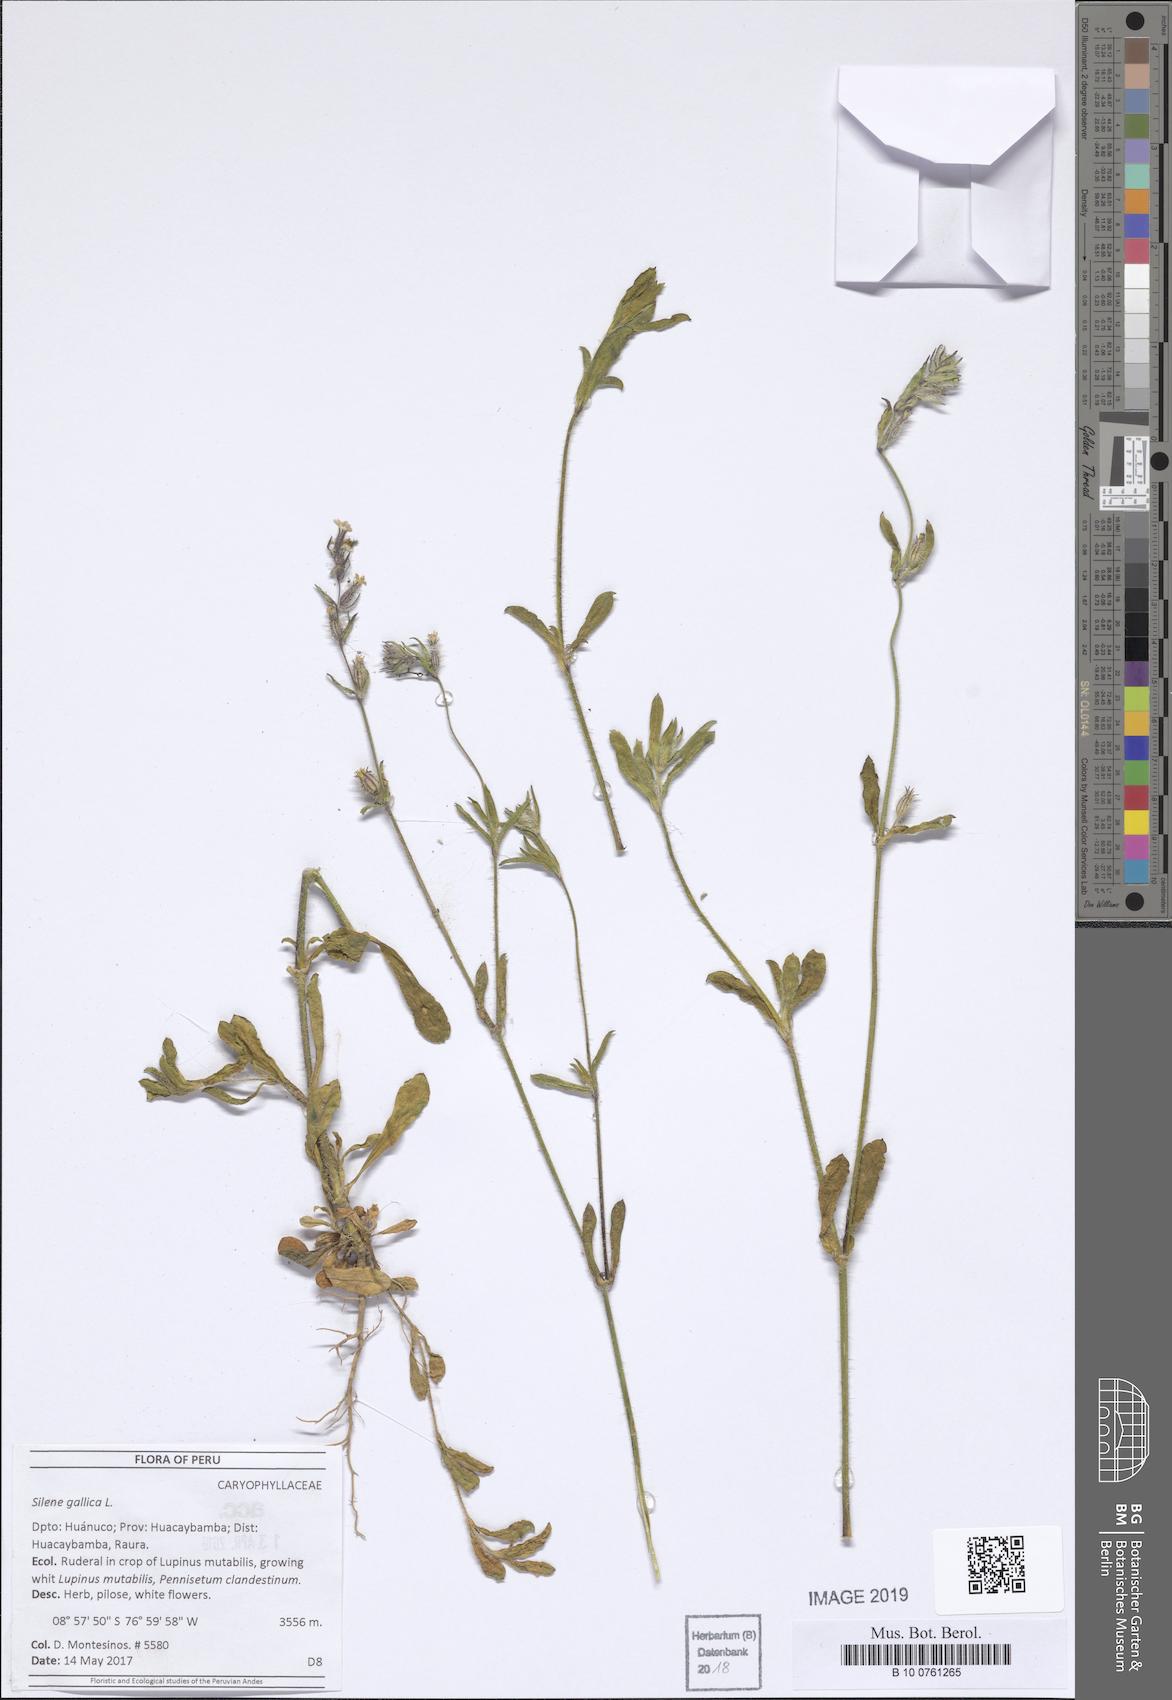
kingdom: Plantae
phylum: Tracheophyta
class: Magnoliopsida
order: Caryophyllales
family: Caryophyllaceae
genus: Silene
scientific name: Silene gallica
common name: Small-flowered catchfly
